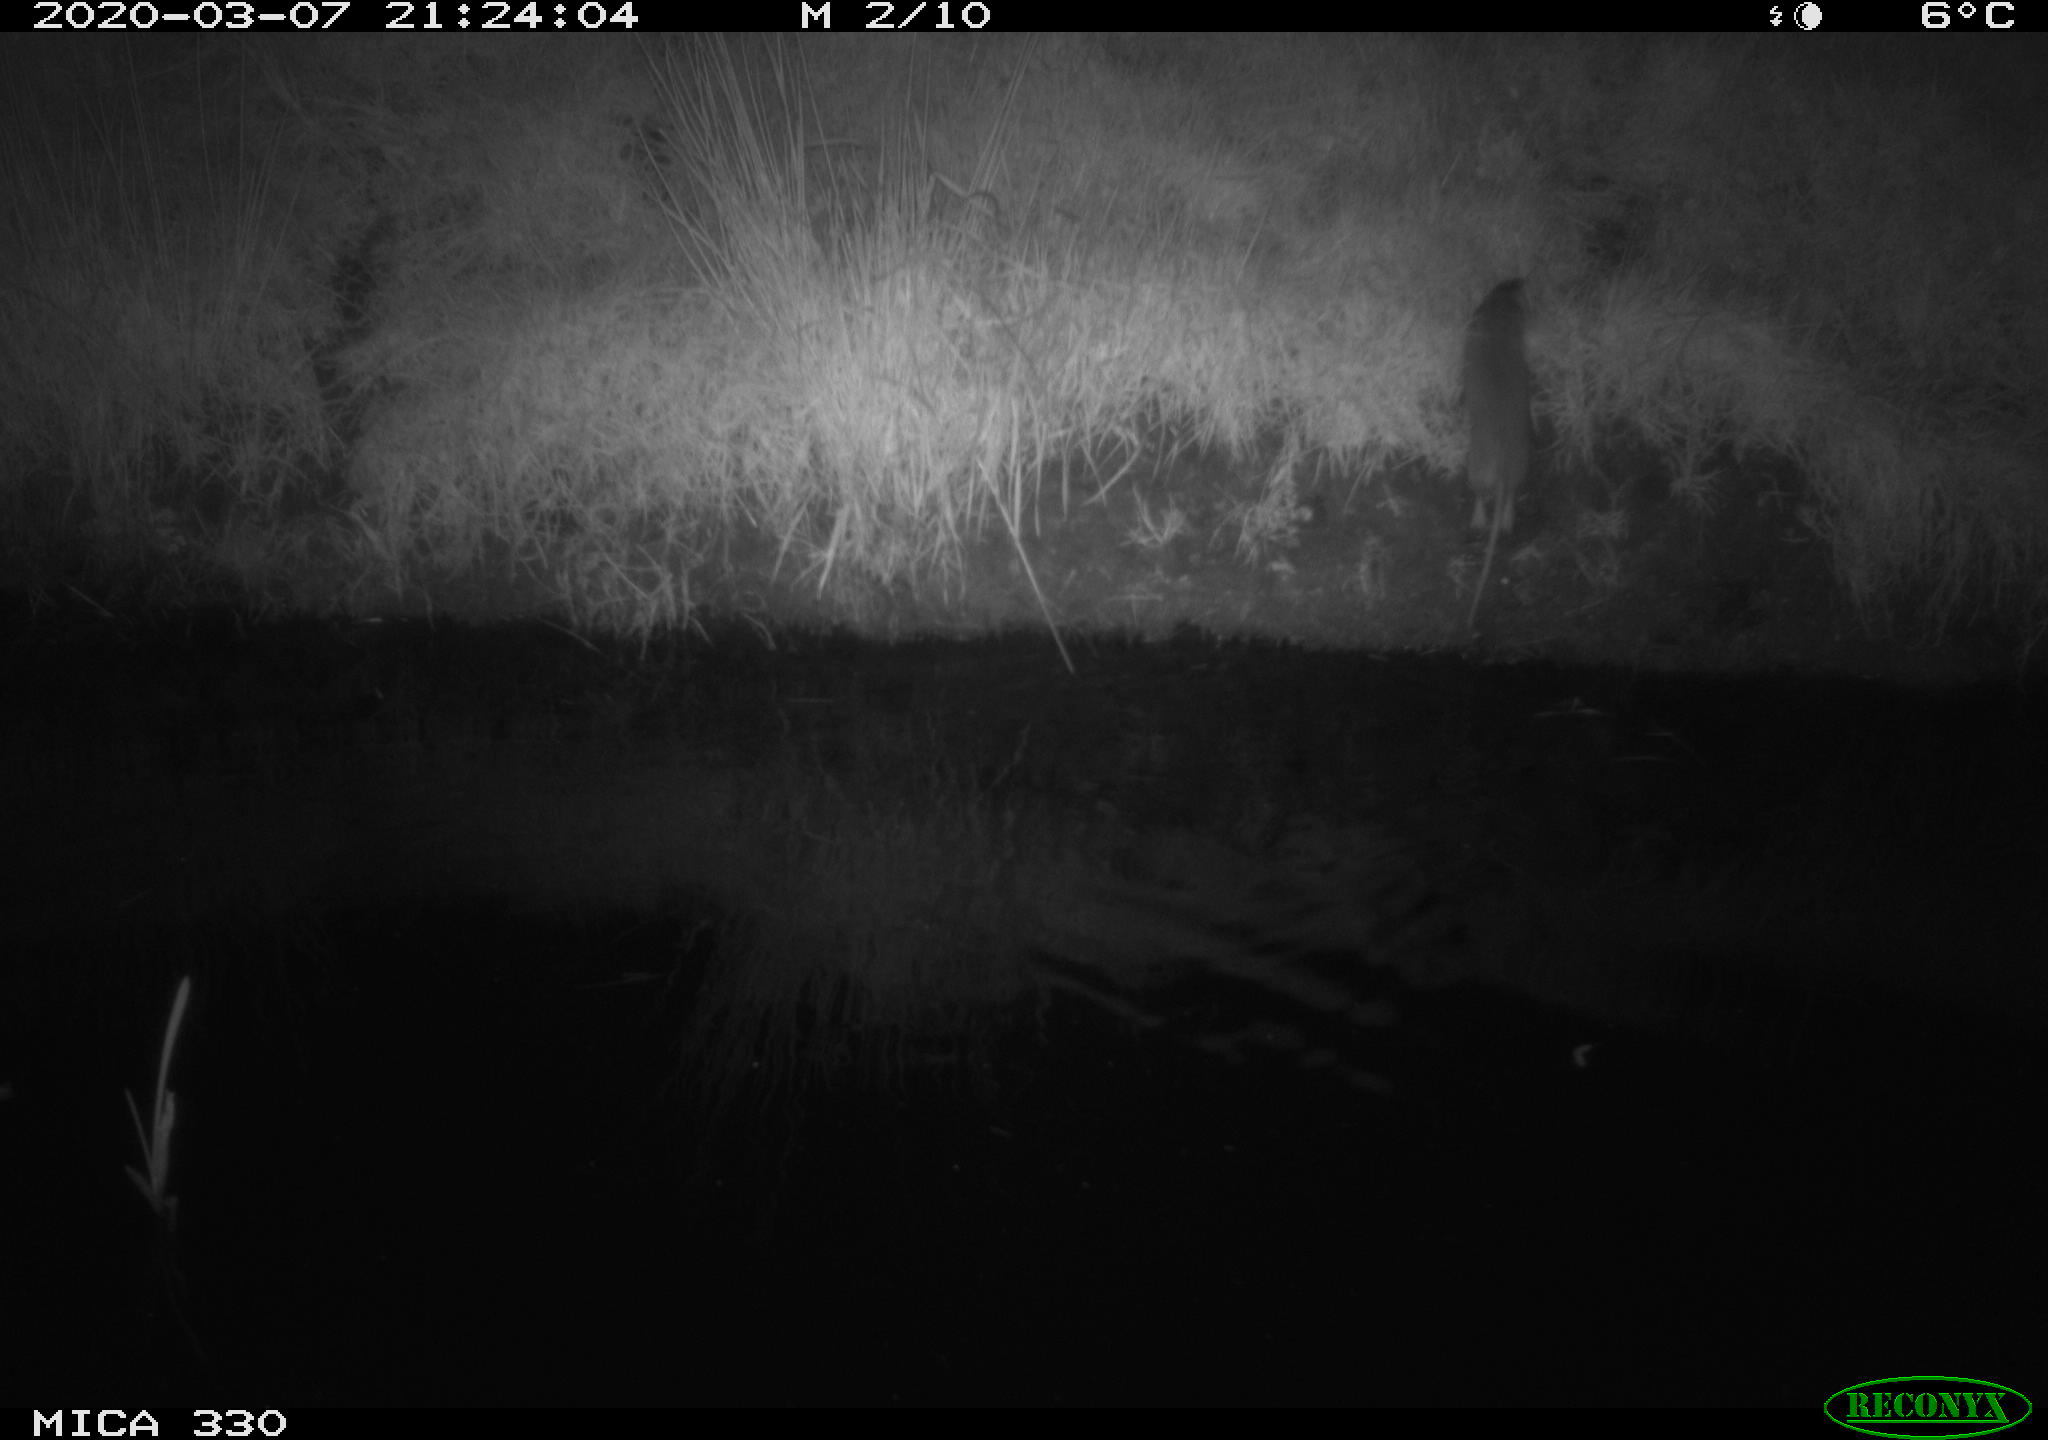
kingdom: Animalia
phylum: Chordata
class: Mammalia
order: Rodentia
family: Muridae
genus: Rattus
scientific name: Rattus norvegicus
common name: Brown rat
